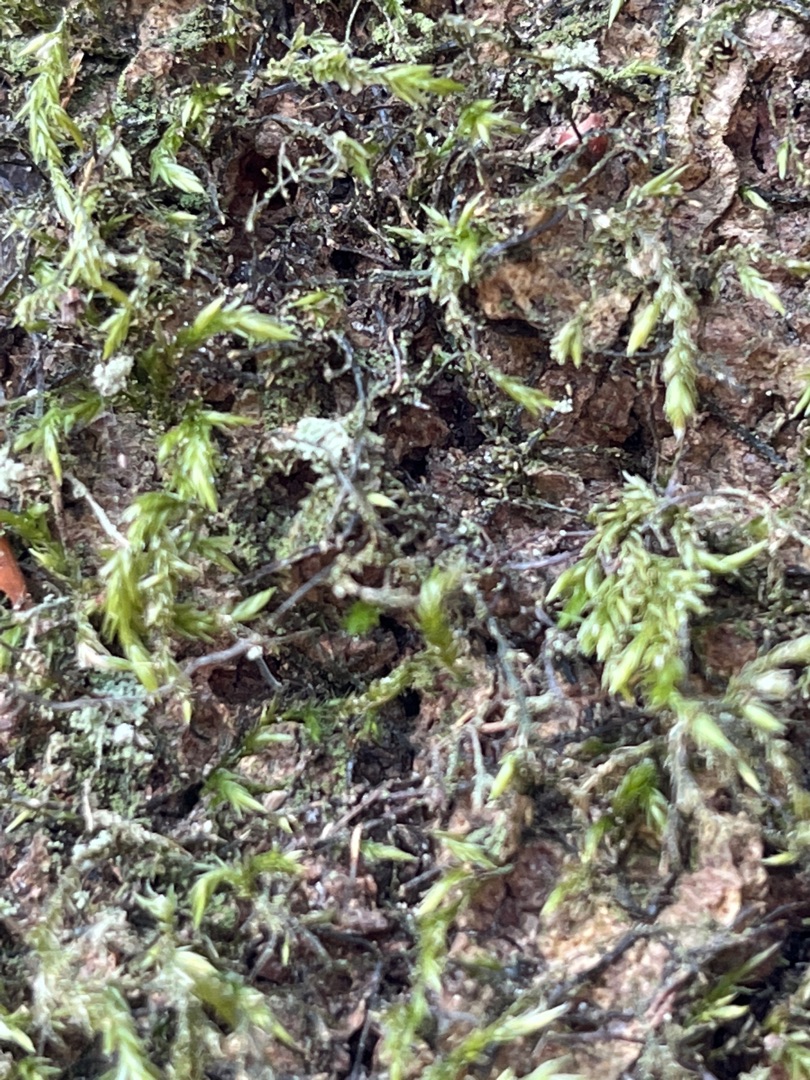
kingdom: Plantae
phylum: Bryophyta
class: Bryopsida
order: Hypnales
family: Lembophyllaceae
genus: Isothecium
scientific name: Isothecium alopecuroides
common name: Stor stammemos
